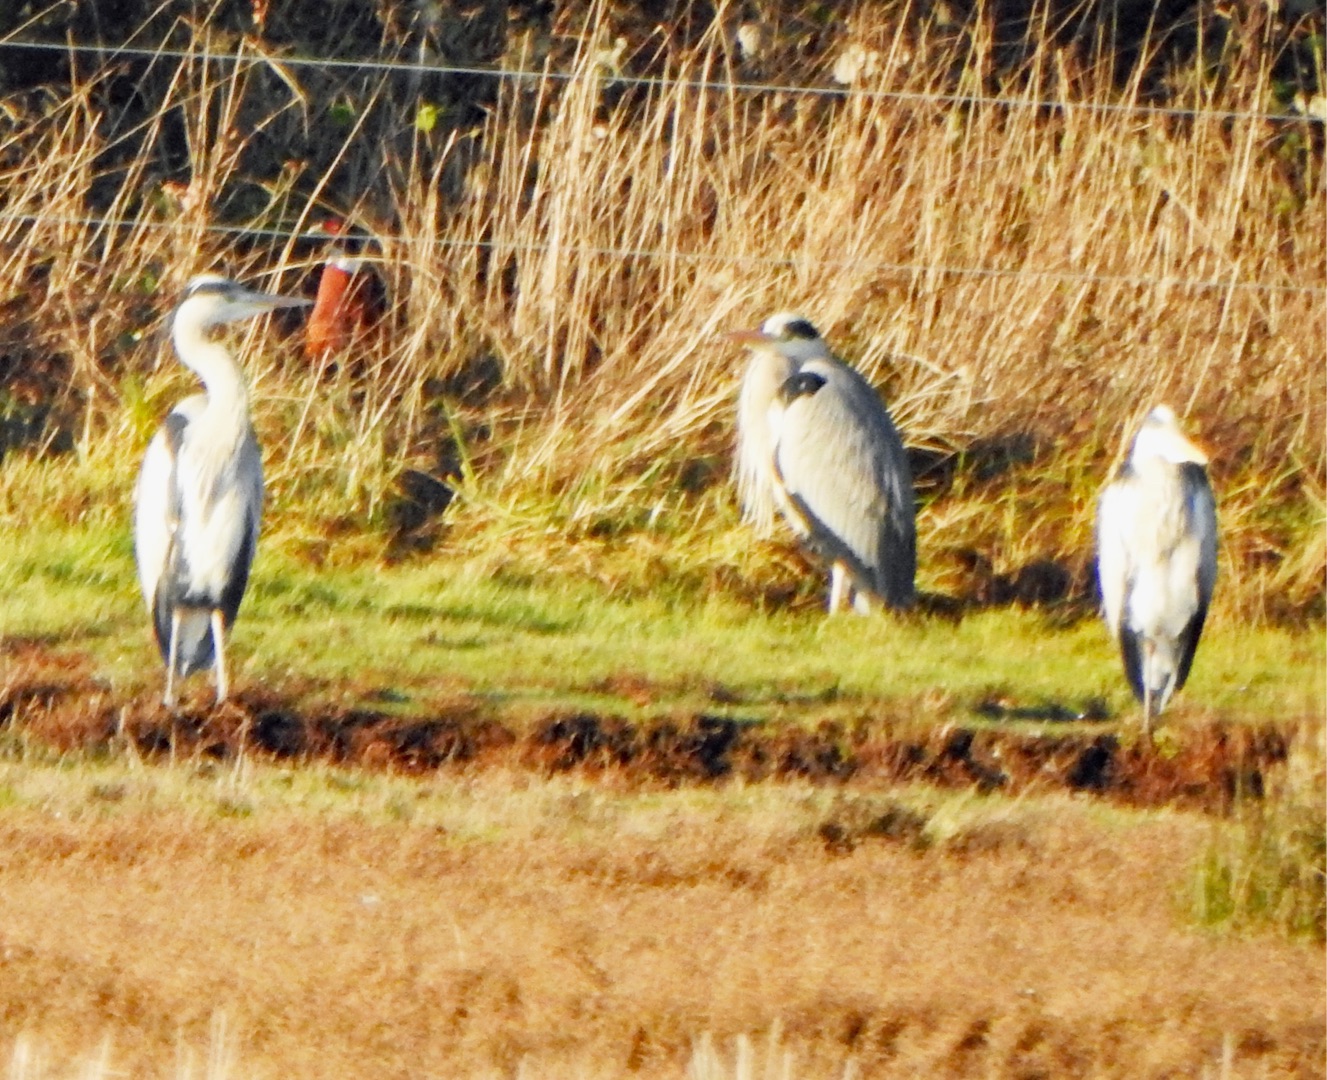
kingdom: Animalia
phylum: Chordata
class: Aves
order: Pelecaniformes
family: Ardeidae
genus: Ardea
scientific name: Ardea cinerea
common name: Fiskehejre
